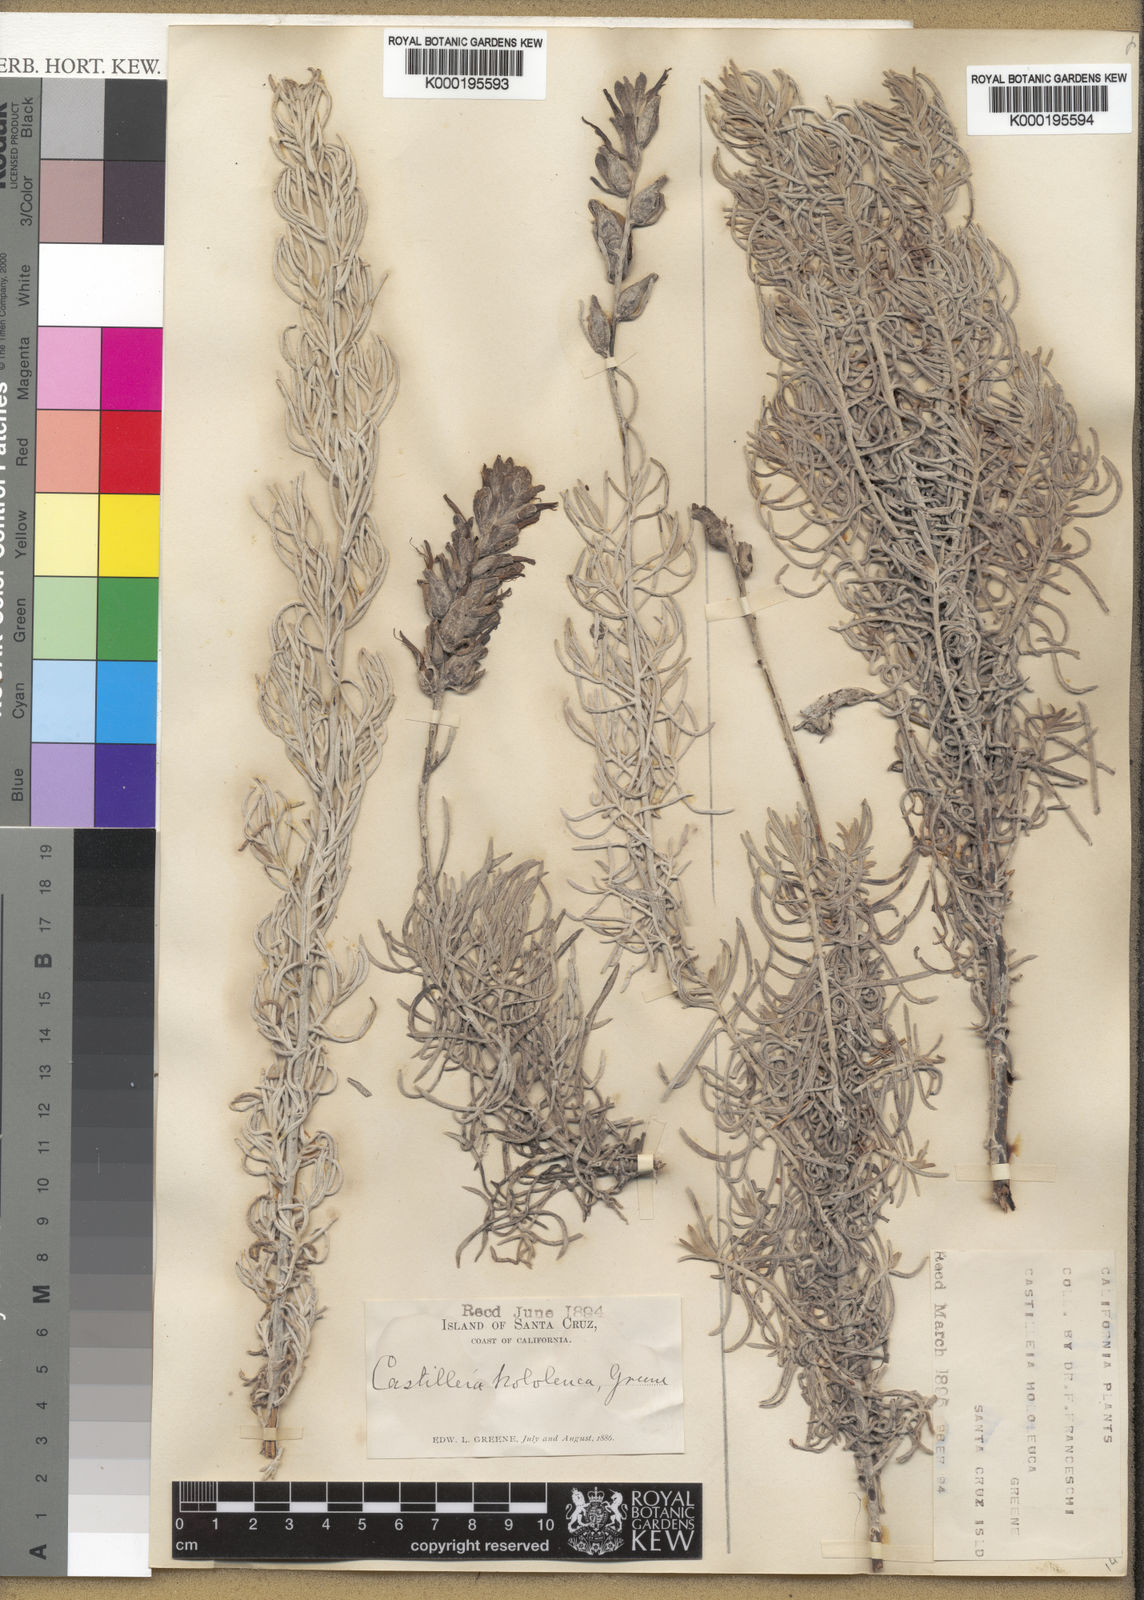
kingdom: Plantae
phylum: Tracheophyta
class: Magnoliopsida
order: Lamiales
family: Orobanchaceae
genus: Castilleja
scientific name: Castilleja hololeuca
